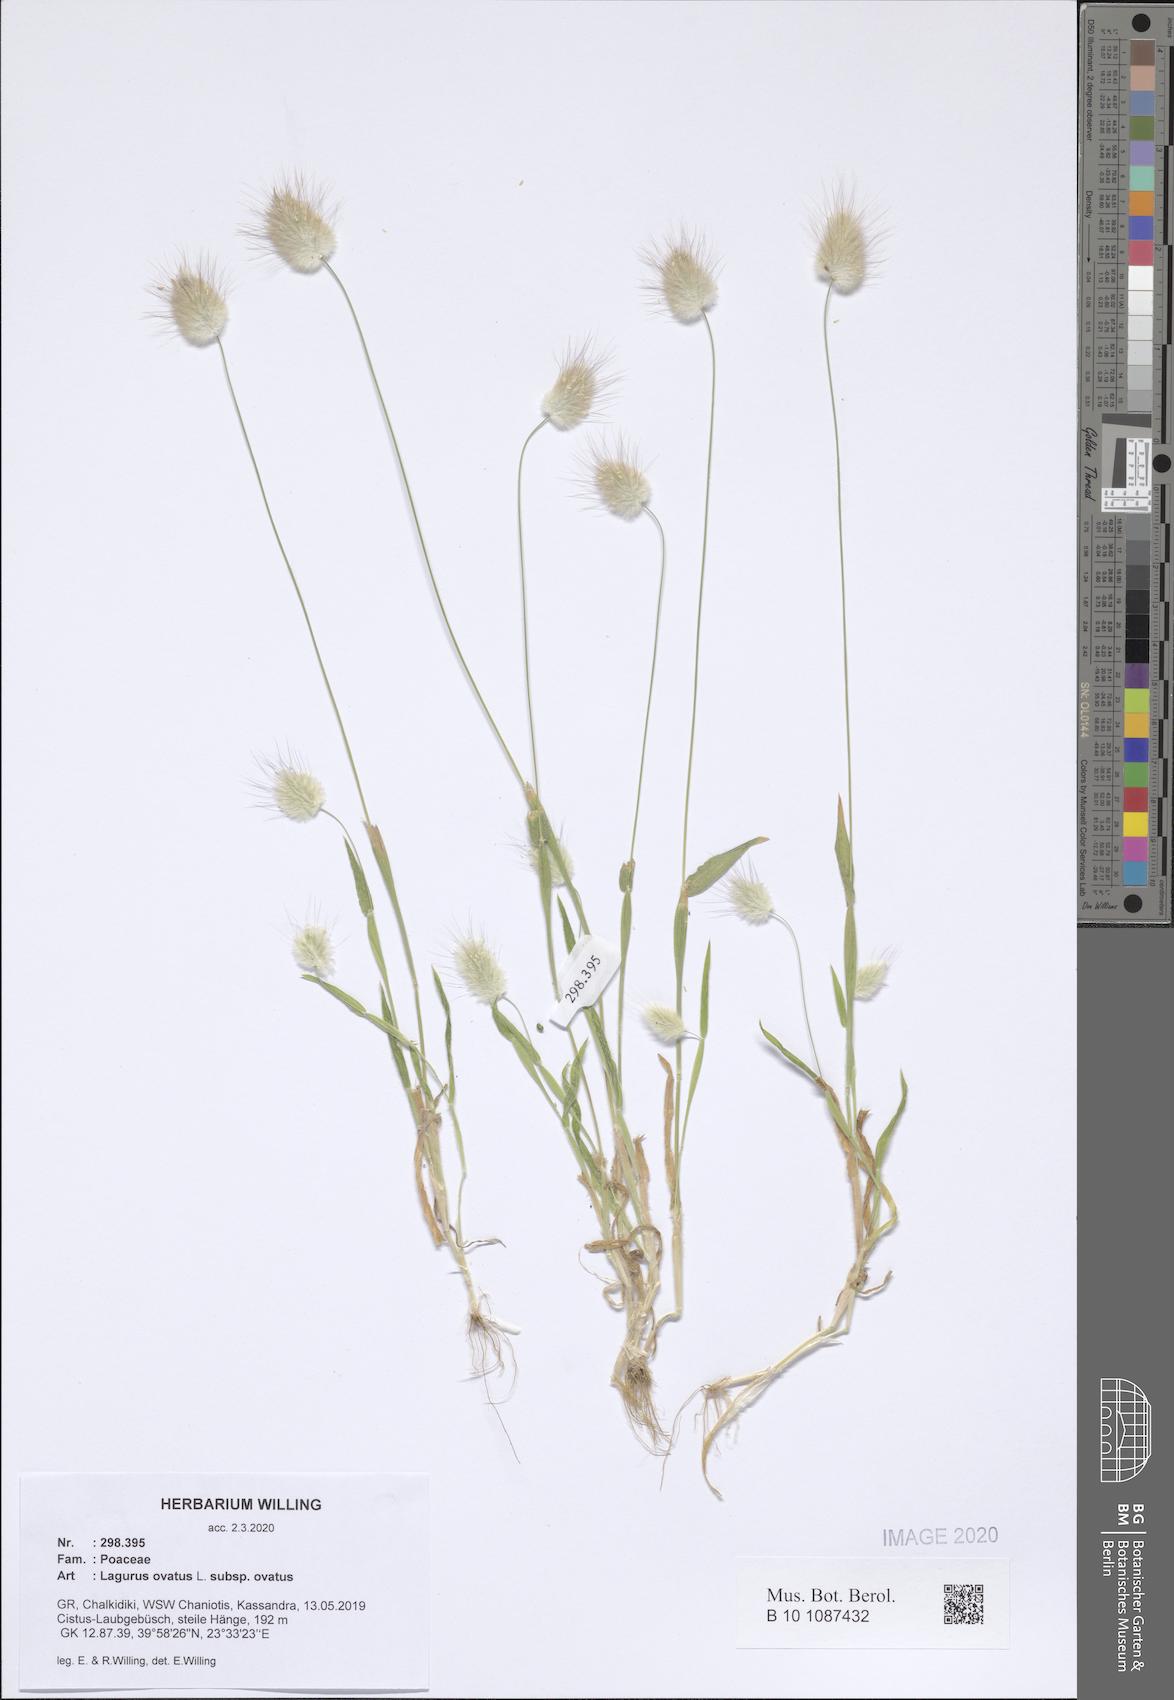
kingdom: Plantae
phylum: Tracheophyta
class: Liliopsida
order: Poales
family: Poaceae
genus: Lagurus
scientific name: Lagurus ovatus
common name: Hare's-tail
